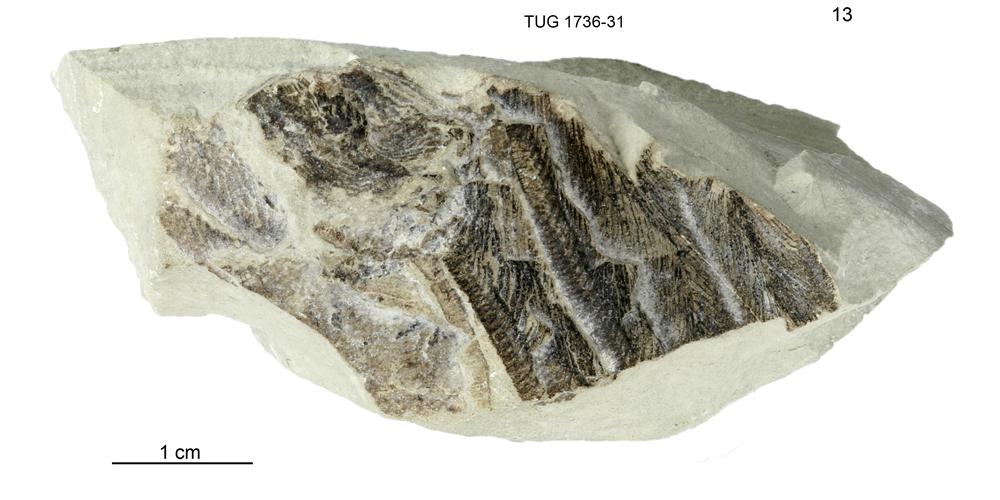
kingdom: Animalia
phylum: Echinodermata
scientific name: Echinodermata
